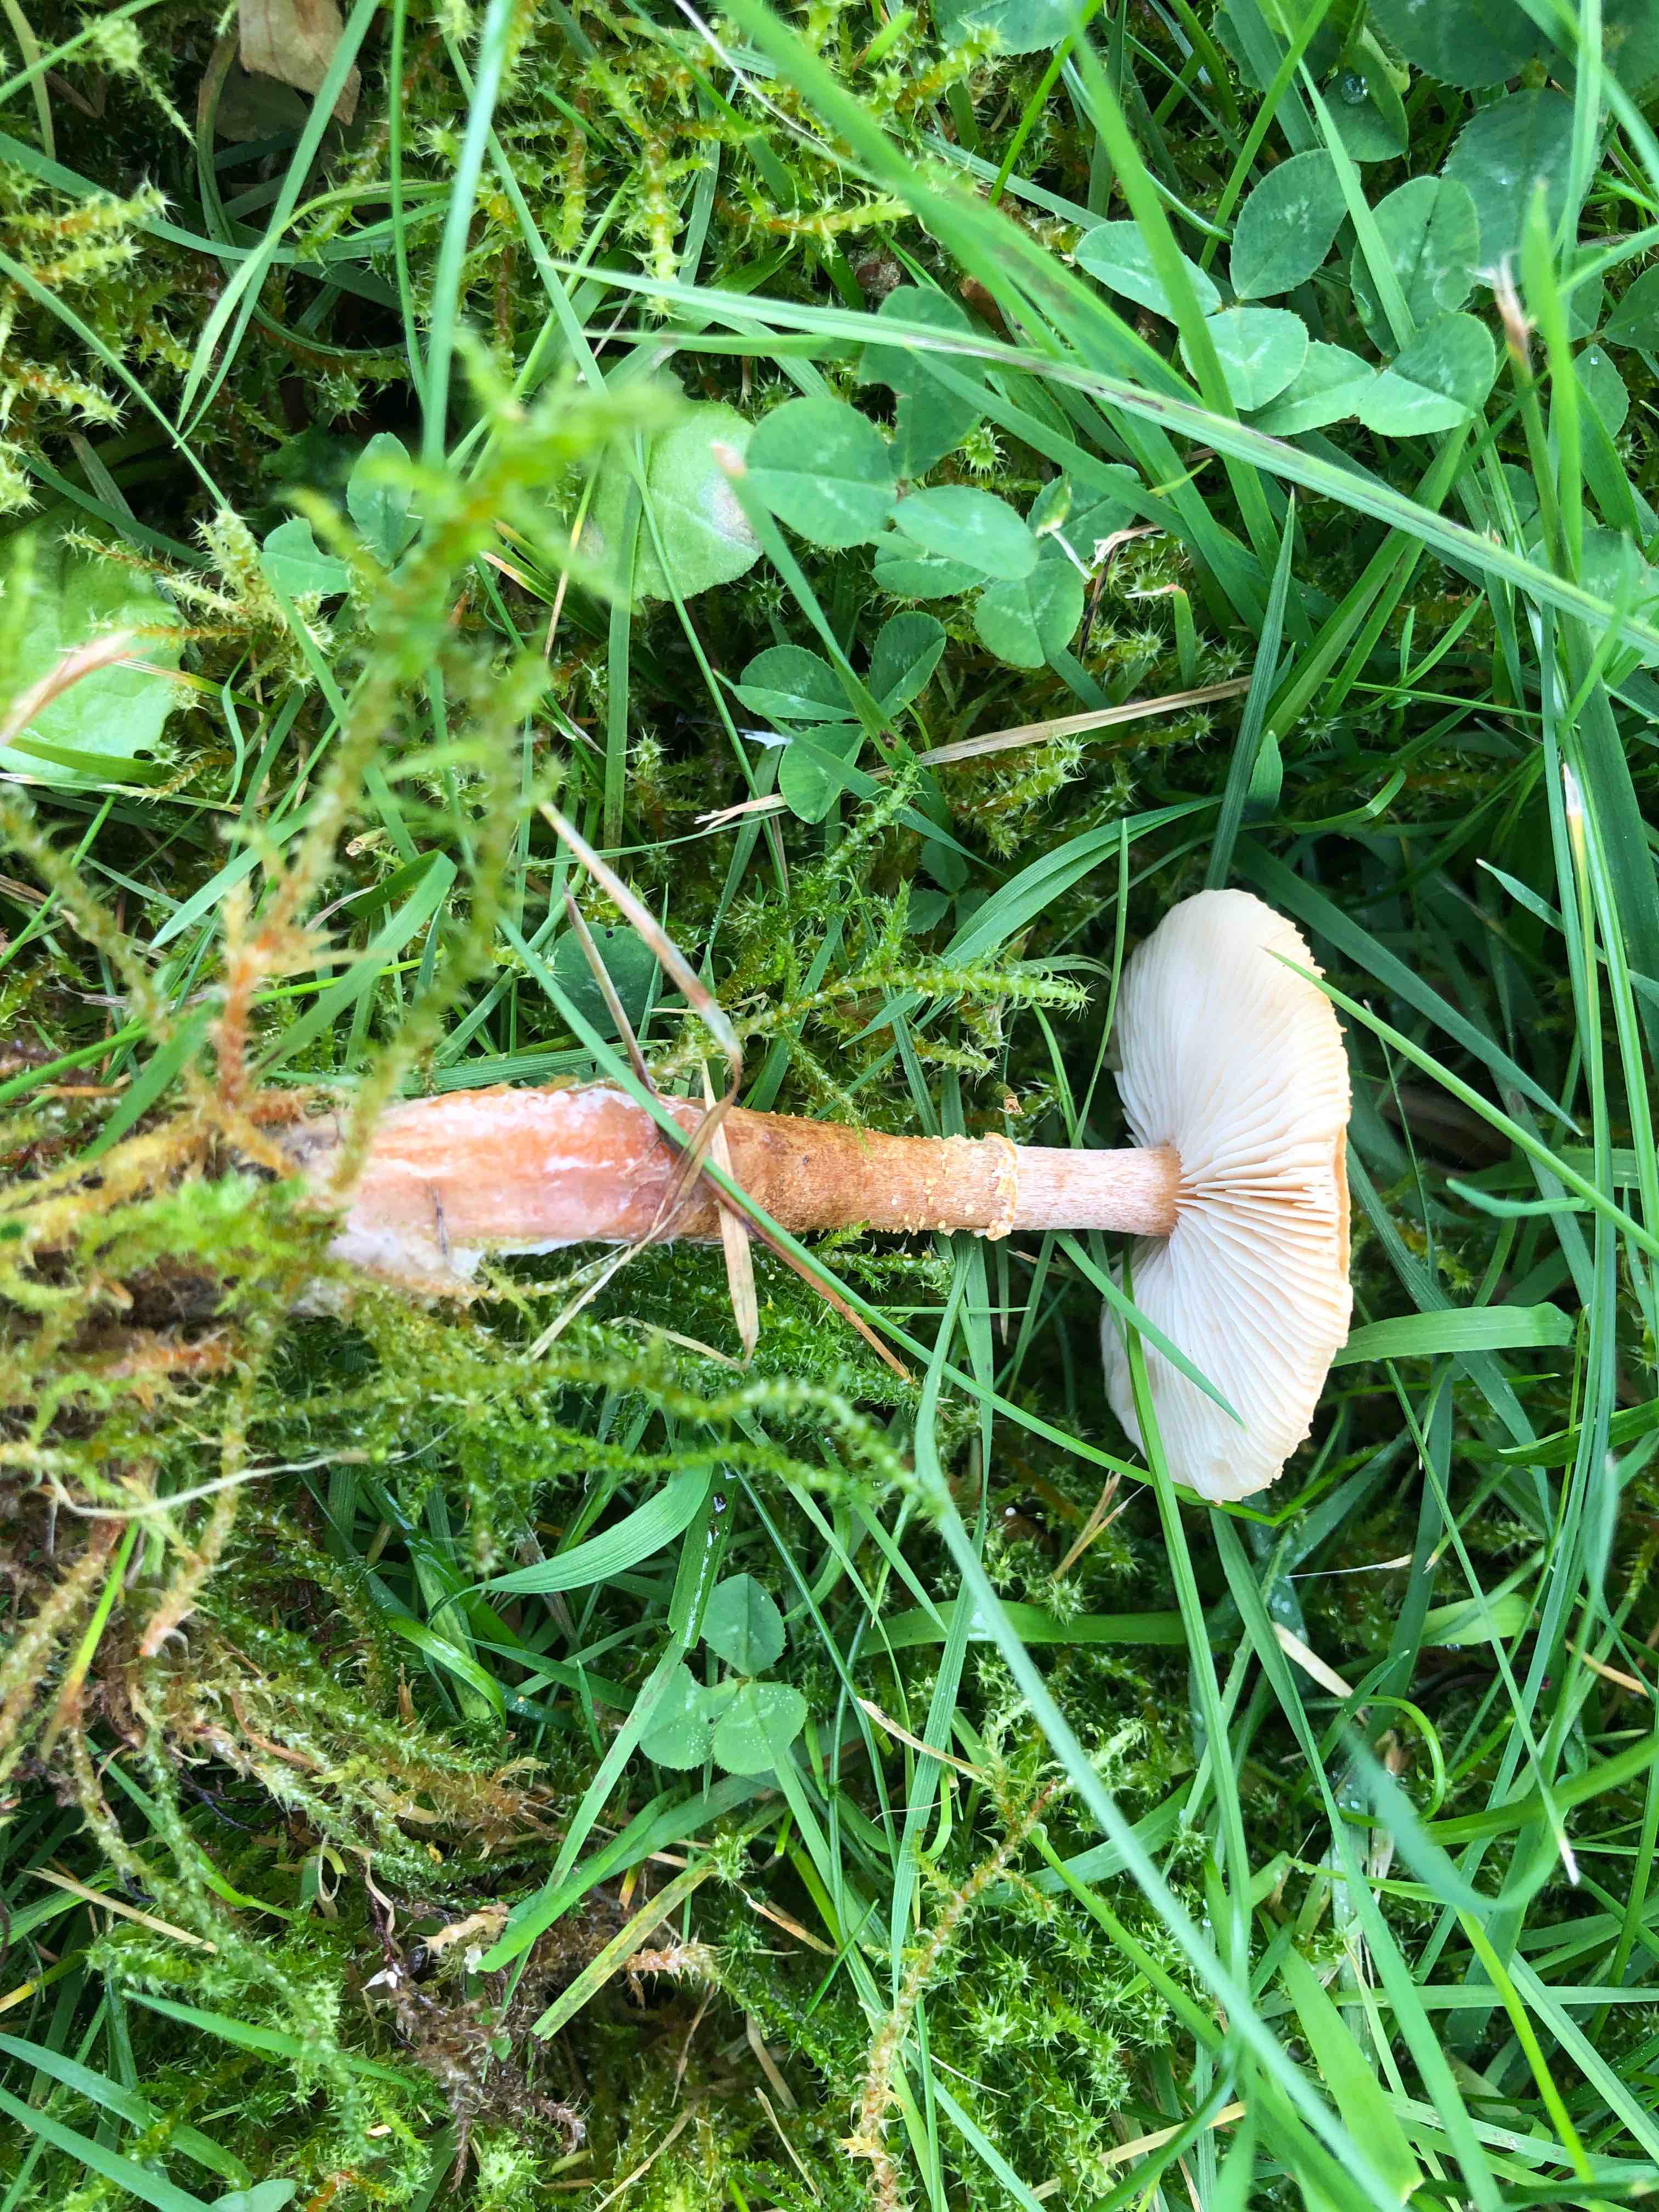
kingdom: Fungi
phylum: Basidiomycota
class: Agaricomycetes
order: Agaricales
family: Tricholomataceae
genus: Cystoderma
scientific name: Cystoderma amianthinum
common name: okkergul grynhat
